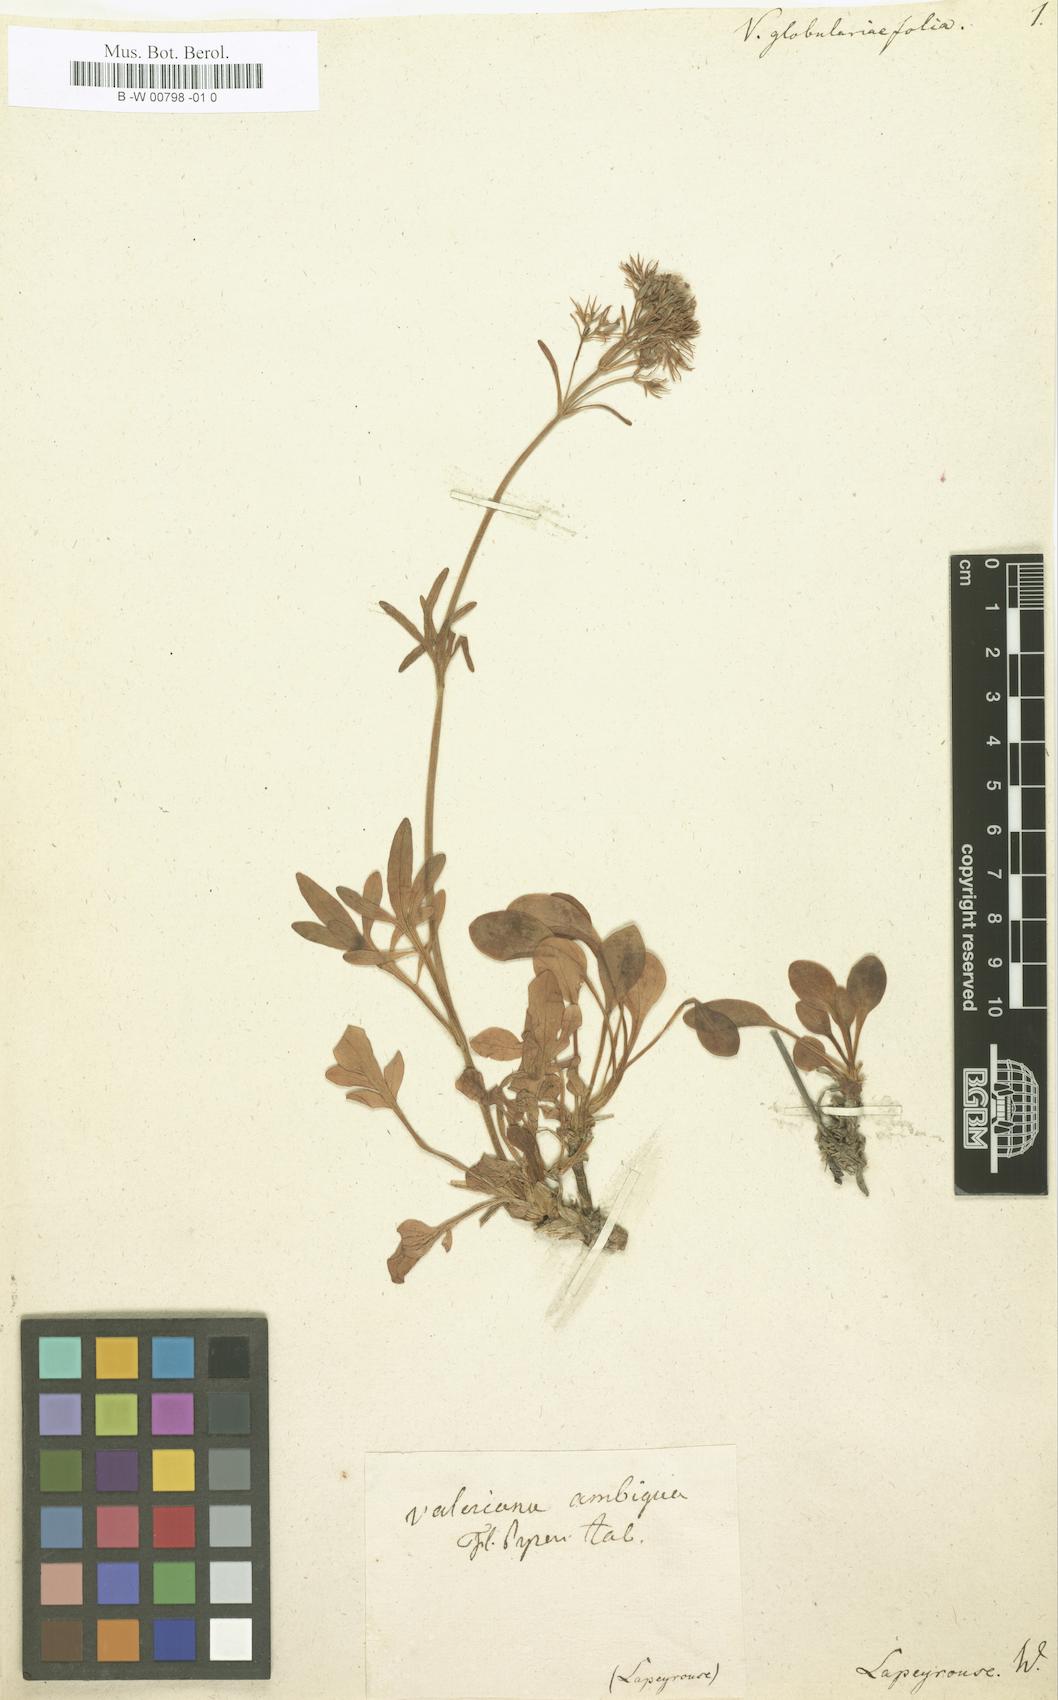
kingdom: Plantae
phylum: Tracheophyta
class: Magnoliopsida
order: Dipsacales
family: Caprifoliaceae
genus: Valeriana
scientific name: Valeriana apula
